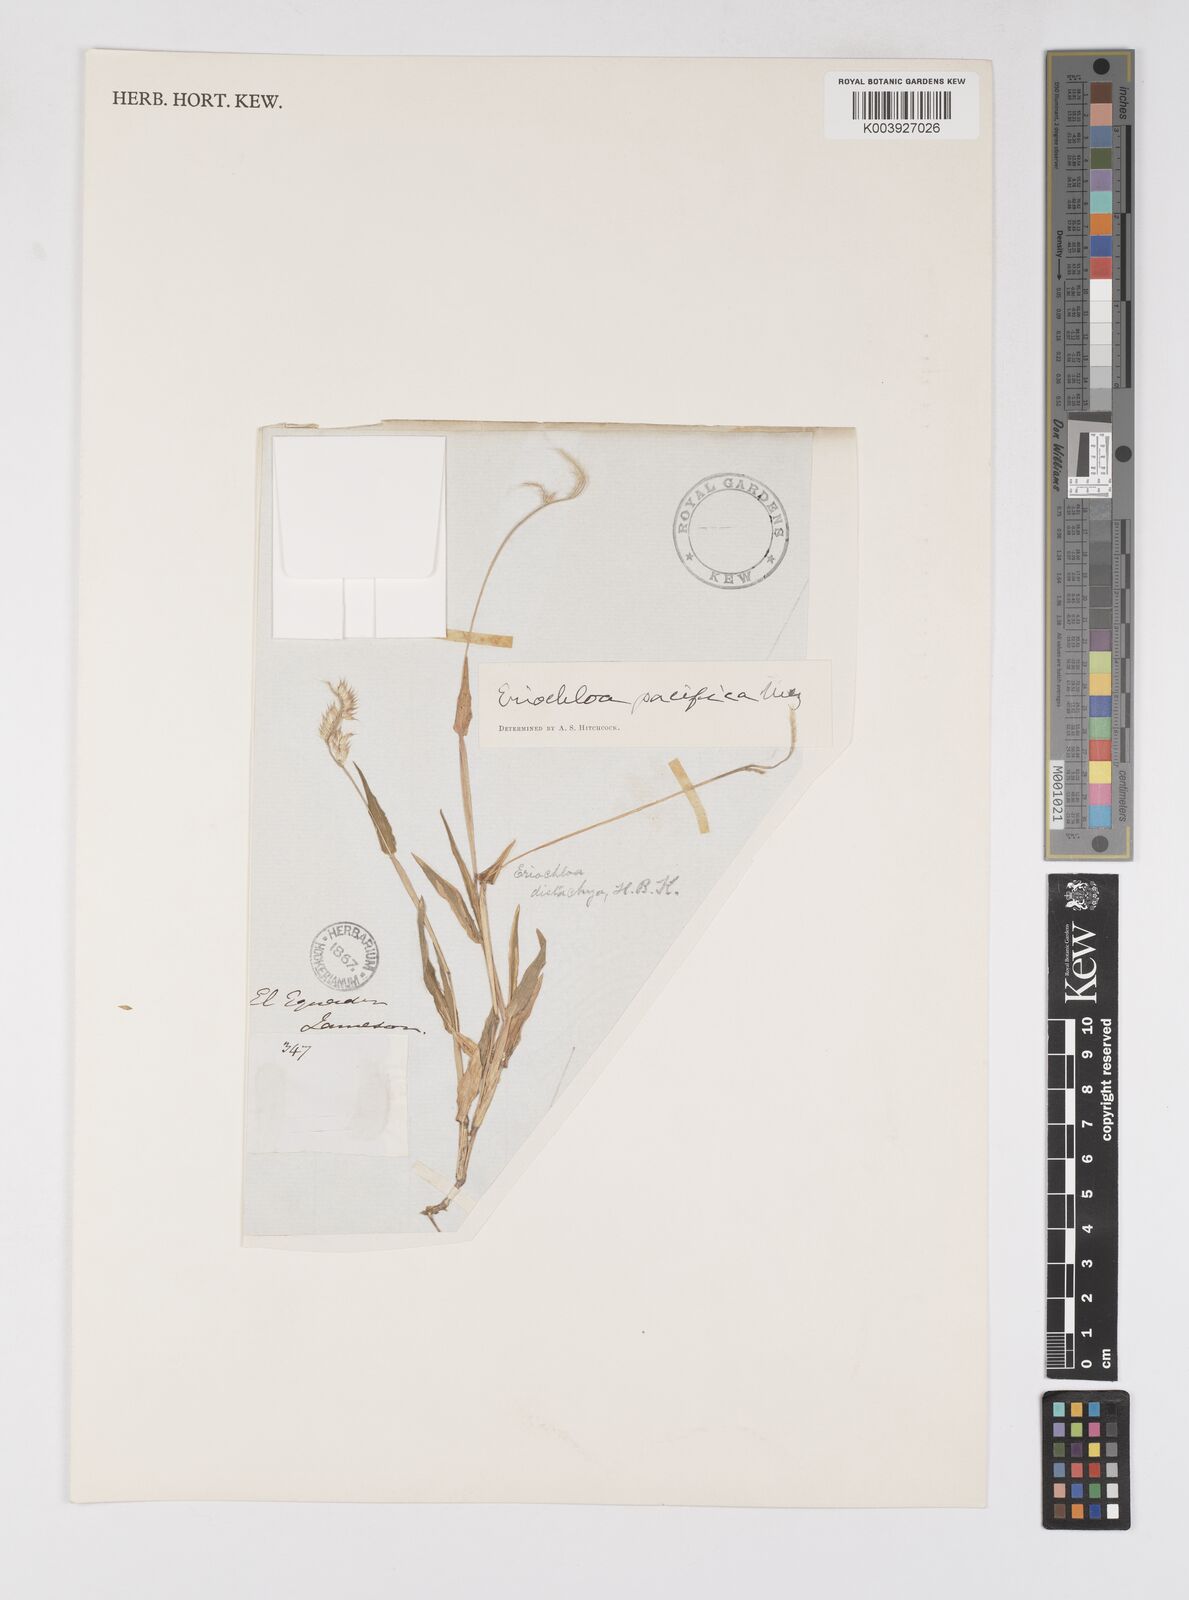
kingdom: Plantae
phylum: Tracheophyta
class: Liliopsida
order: Poales
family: Poaceae
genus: Eriochloa
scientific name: Eriochloa pacifica
